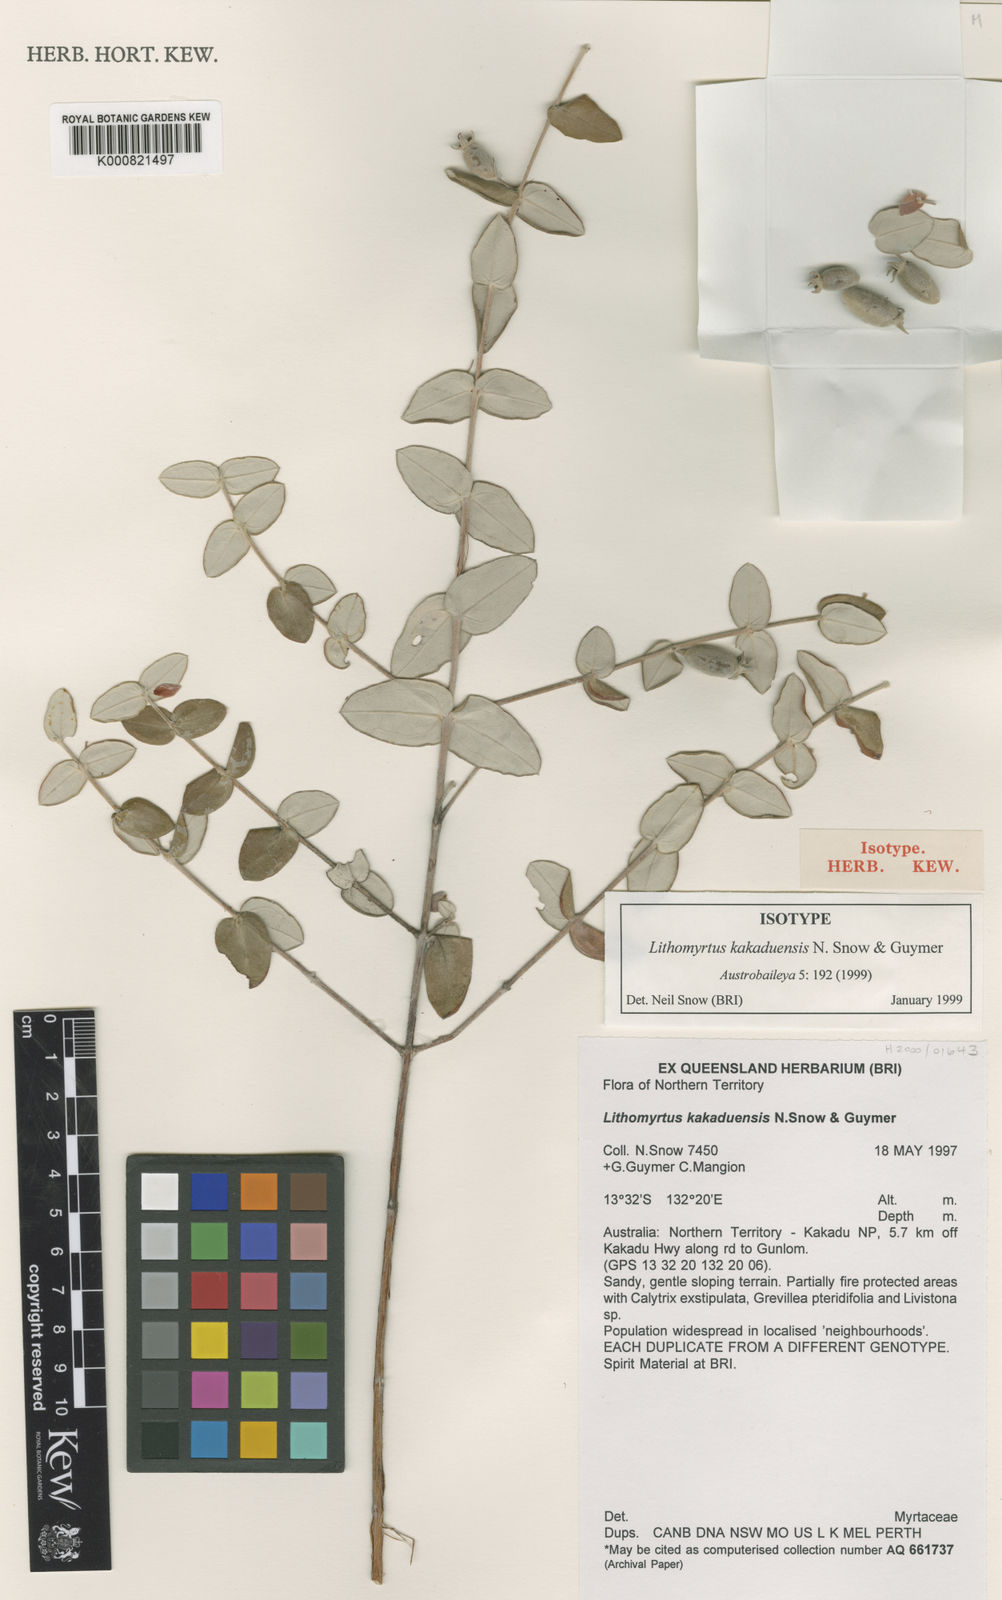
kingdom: Plantae
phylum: Tracheophyta
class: Magnoliopsida
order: Myrtales
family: Myrtaceae
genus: Lithomyrtus
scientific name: Lithomyrtus kakaduensis
